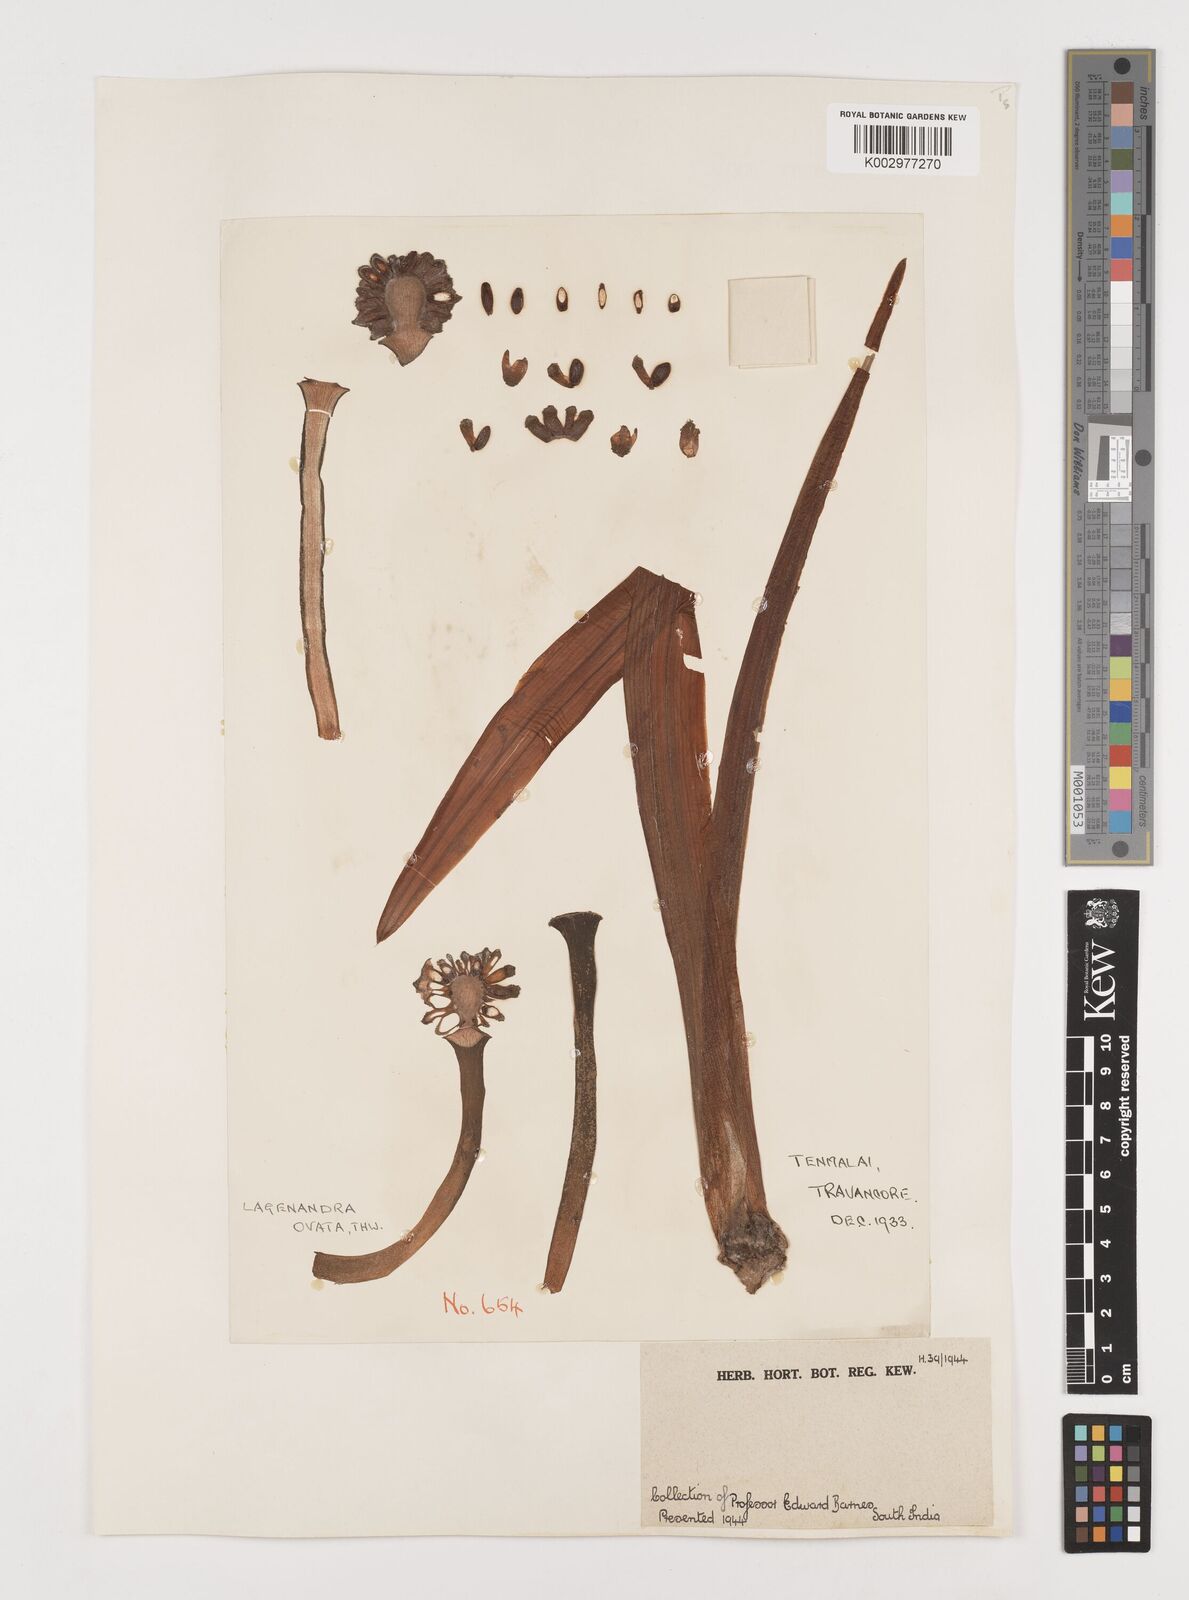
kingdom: Plantae
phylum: Tracheophyta
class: Liliopsida
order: Alismatales
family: Araceae
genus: Lagenandra
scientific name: Lagenandra ovata
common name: Malayan sword
